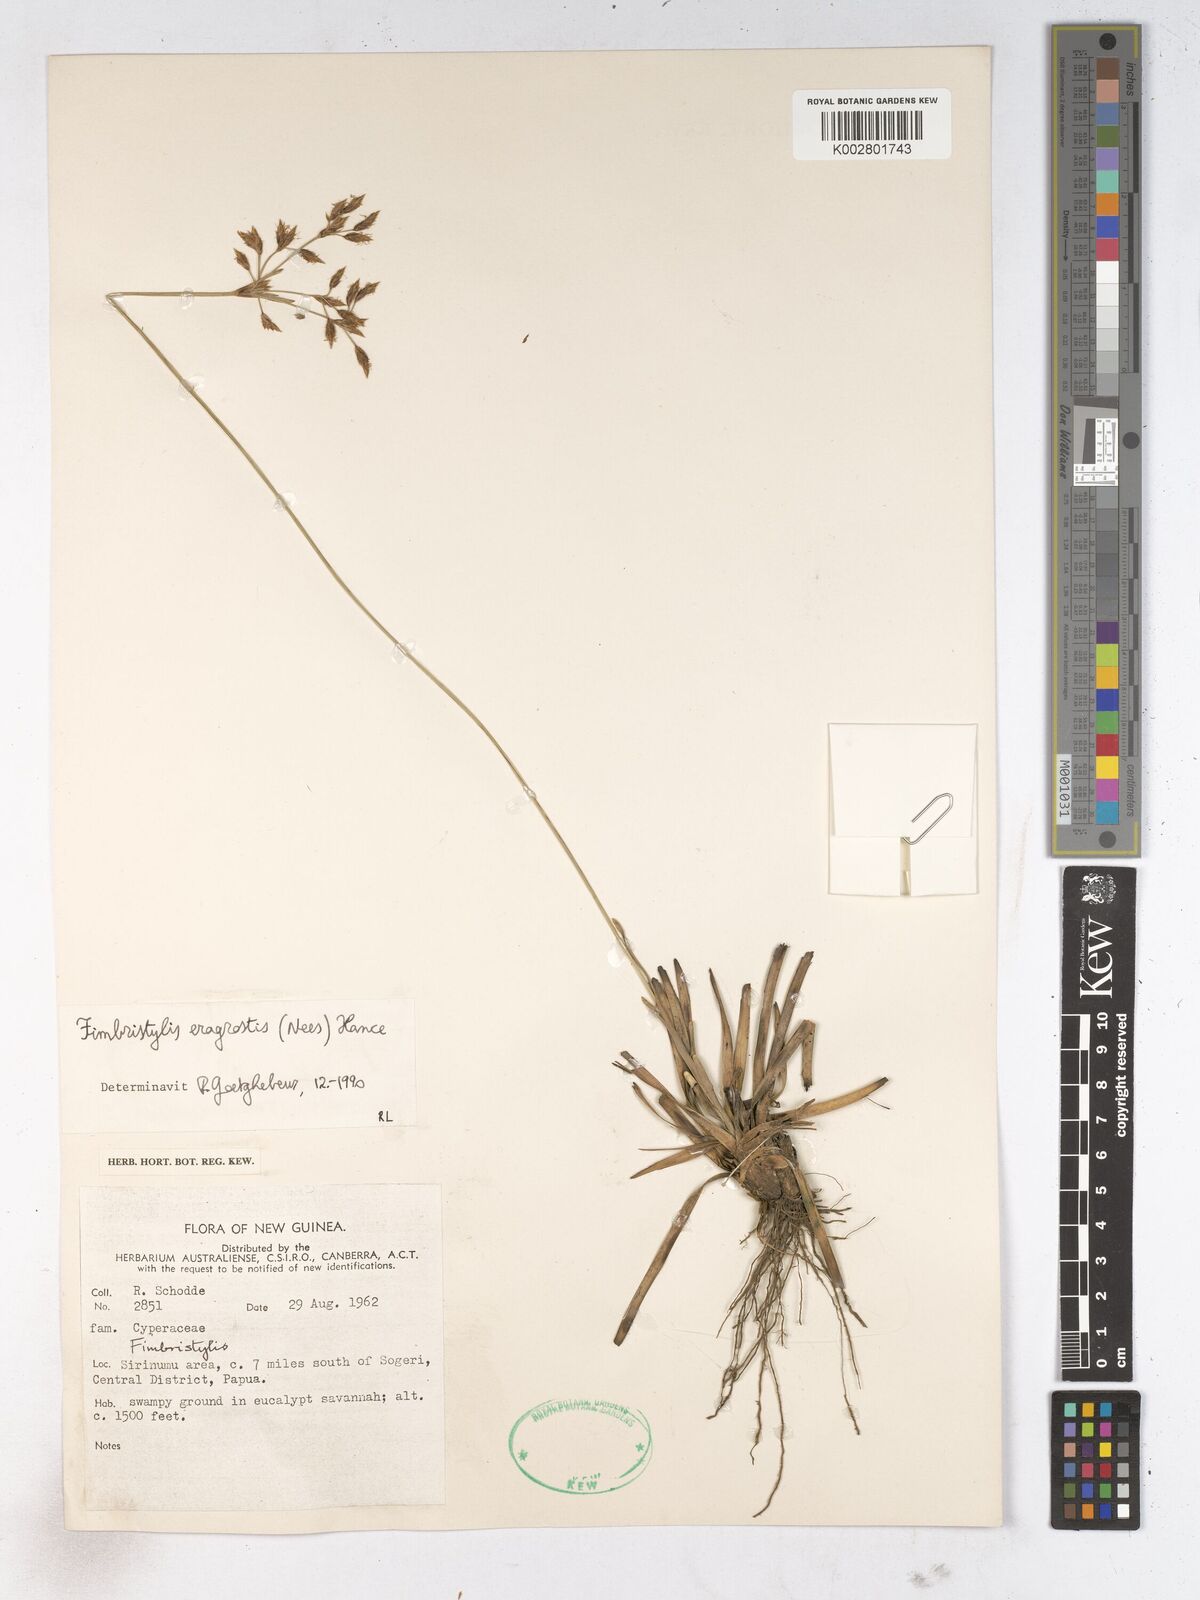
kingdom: Plantae
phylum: Tracheophyta
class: Liliopsida
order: Poales
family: Cyperaceae
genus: Fimbristylis
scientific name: Fimbristylis eragrostis
